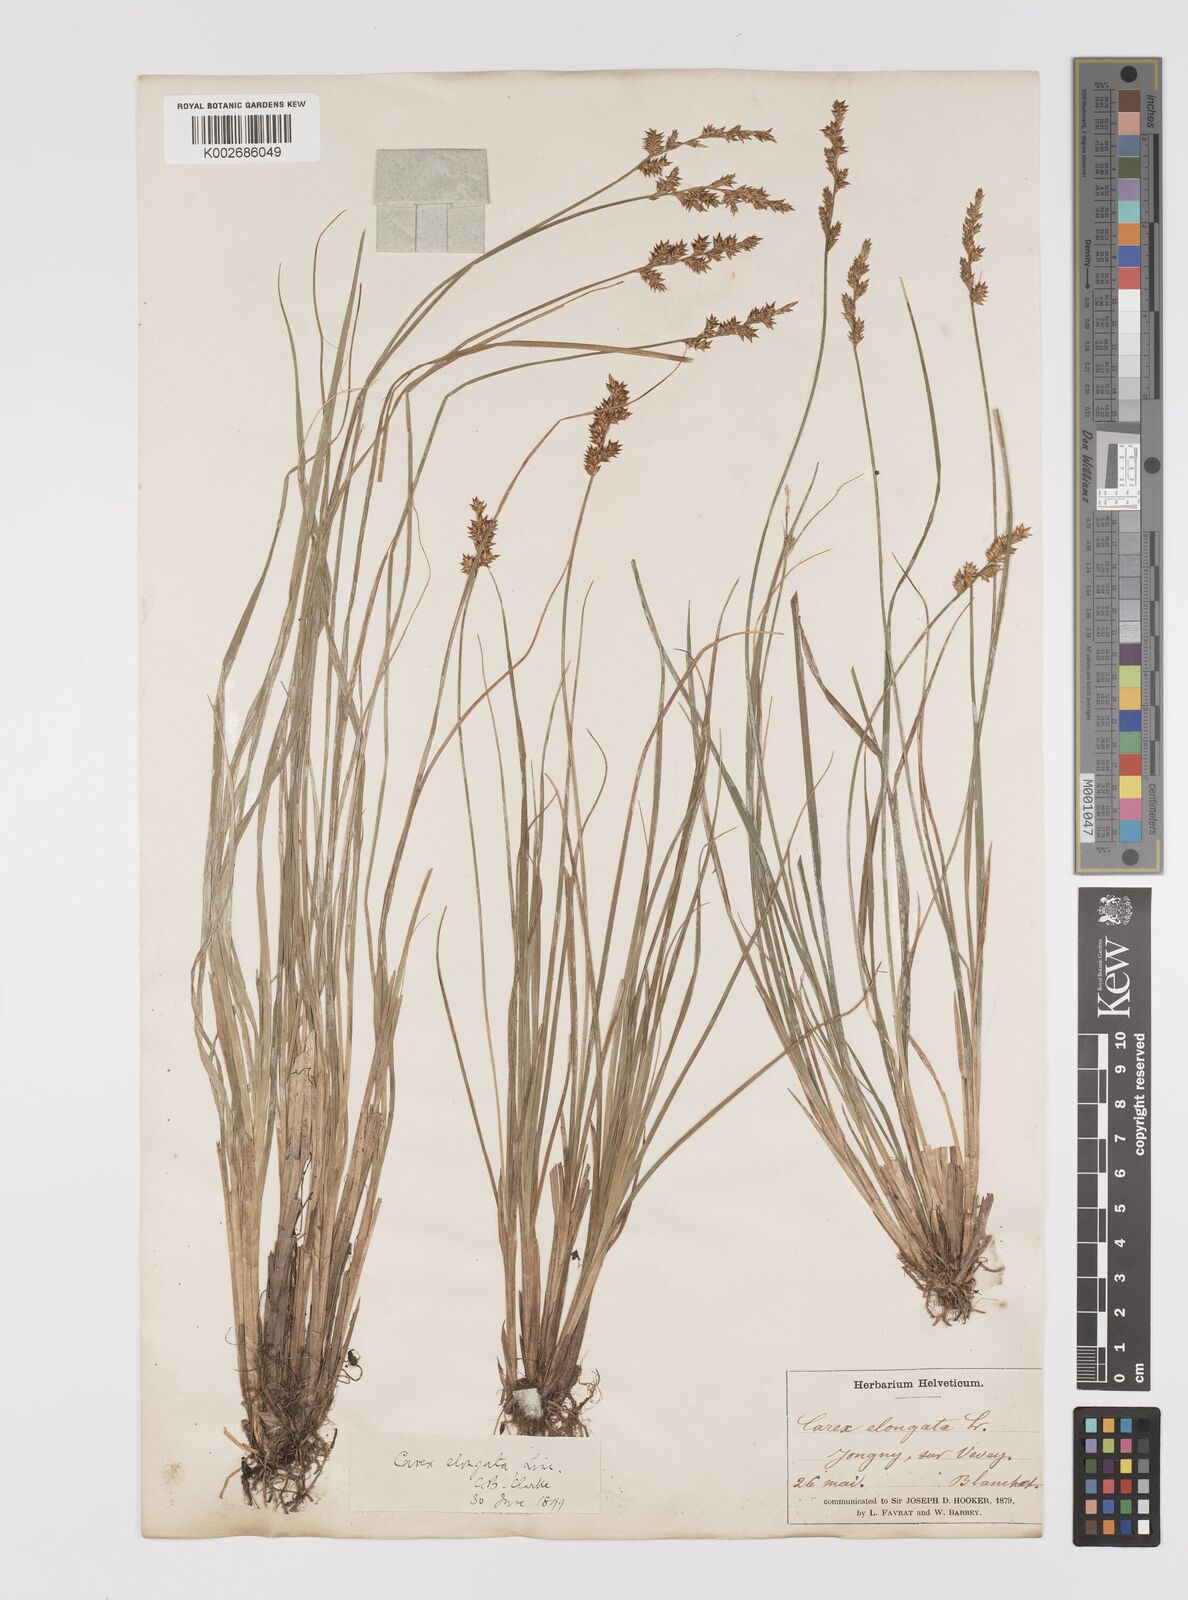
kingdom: Plantae
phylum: Tracheophyta
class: Liliopsida
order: Poales
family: Cyperaceae
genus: Carex
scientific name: Carex elongata
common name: Elongated sedge
